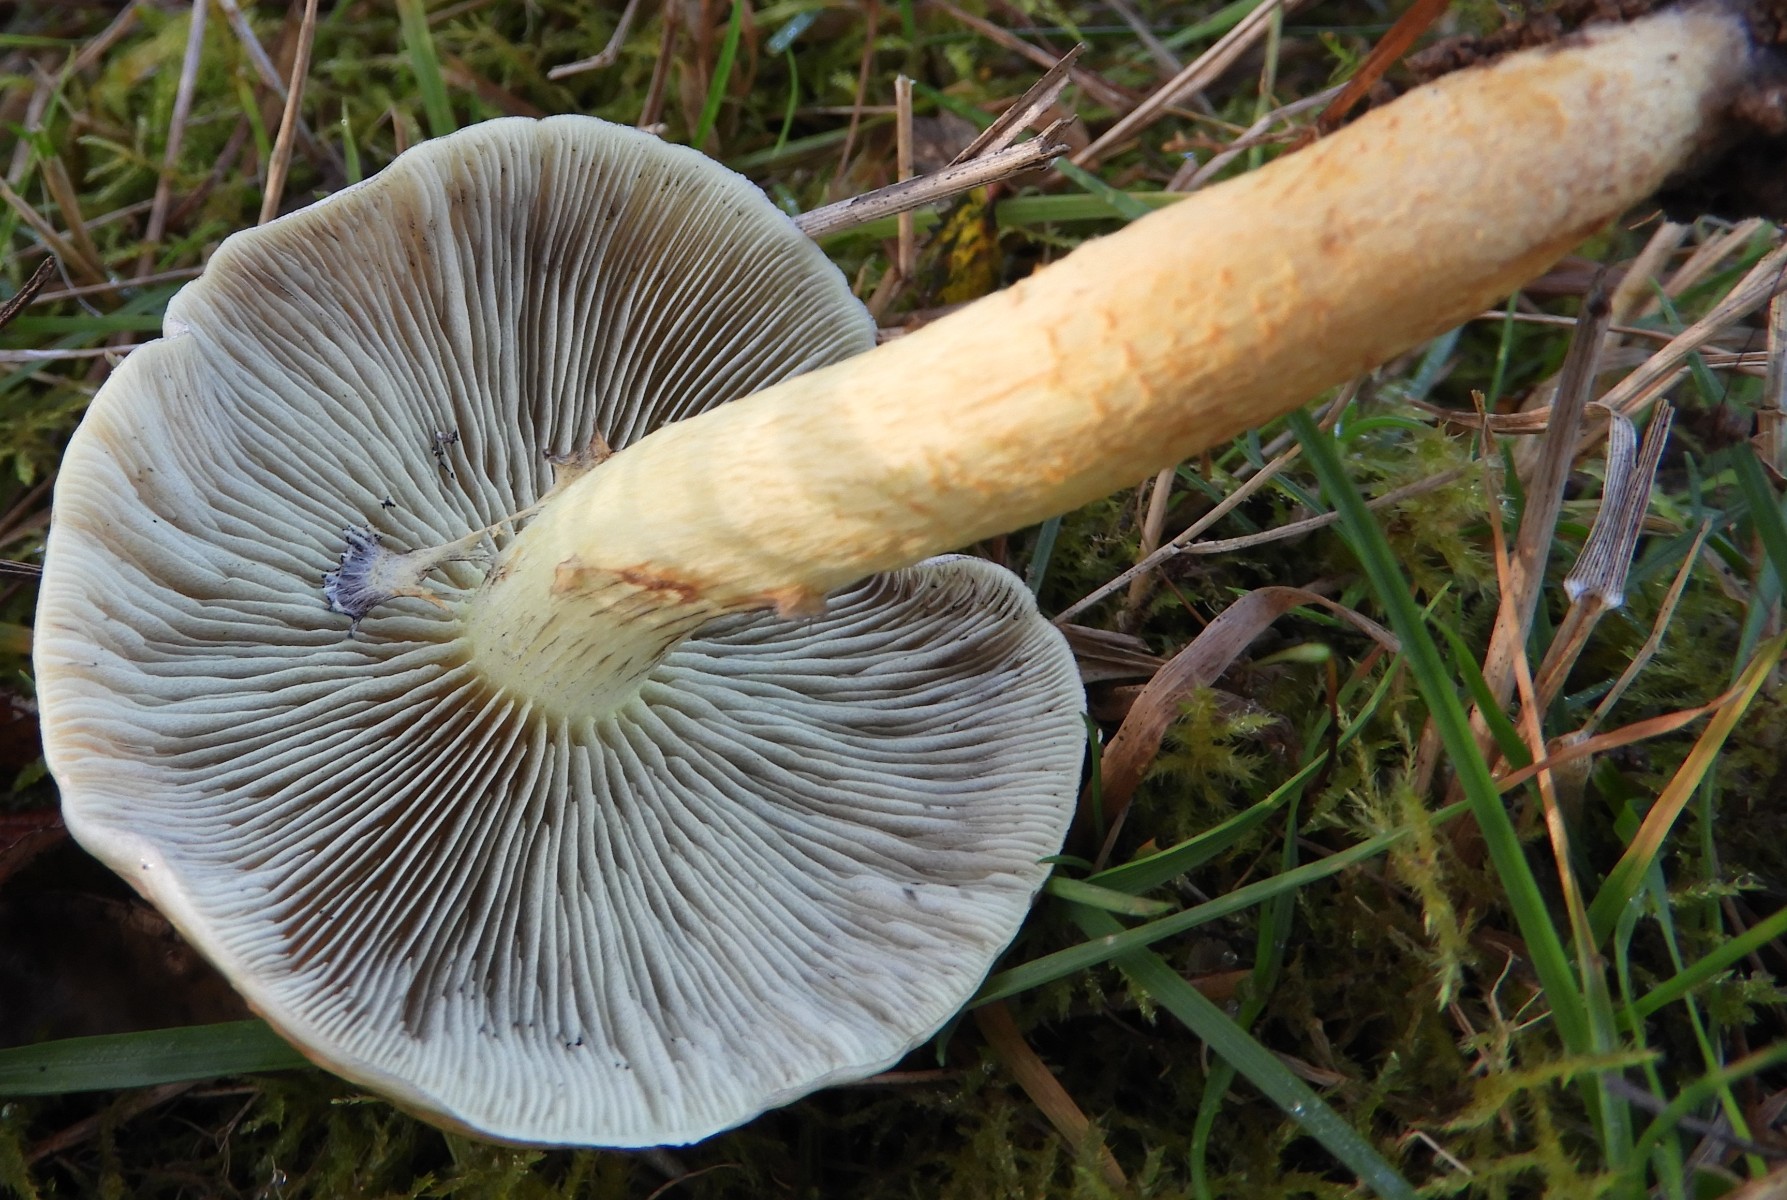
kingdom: Fungi
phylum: Basidiomycota
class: Agaricomycetes
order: Agaricales
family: Strophariaceae
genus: Hypholoma
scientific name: Hypholoma capnoides
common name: gran-svovlhat
